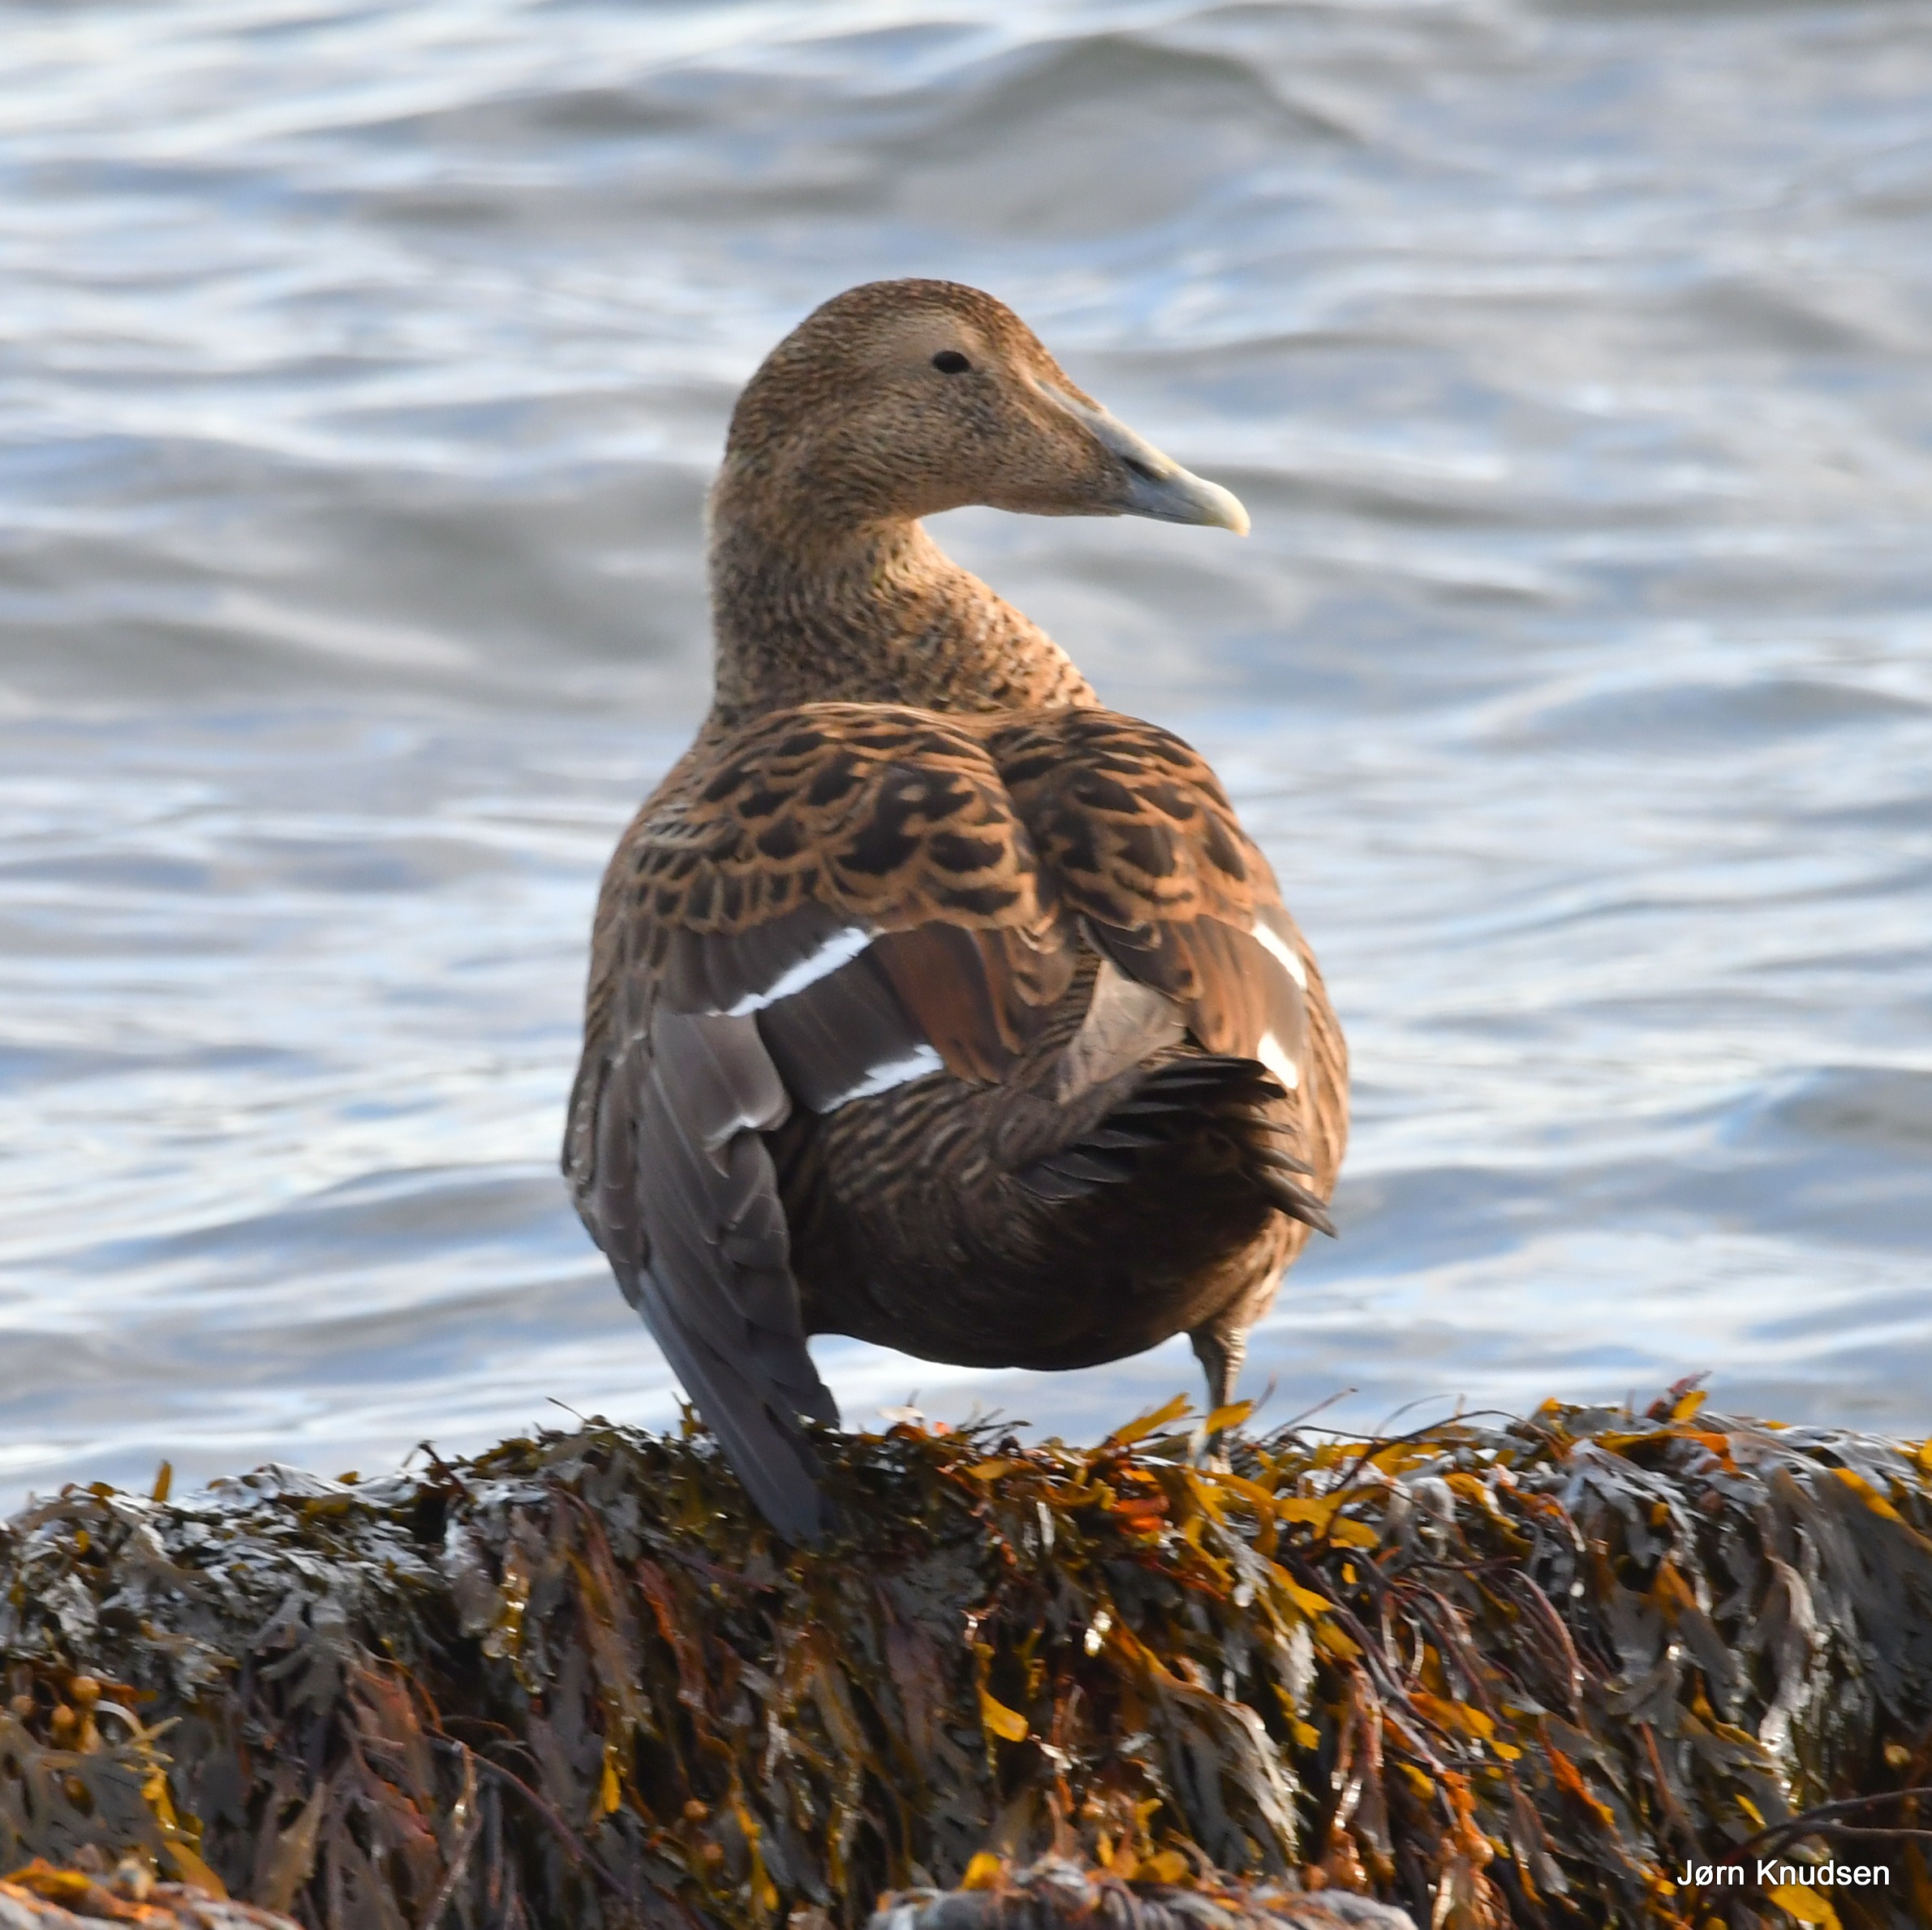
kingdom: Animalia
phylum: Chordata
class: Aves
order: Anseriformes
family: Anatidae
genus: Somateria
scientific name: Somateria mollissima
